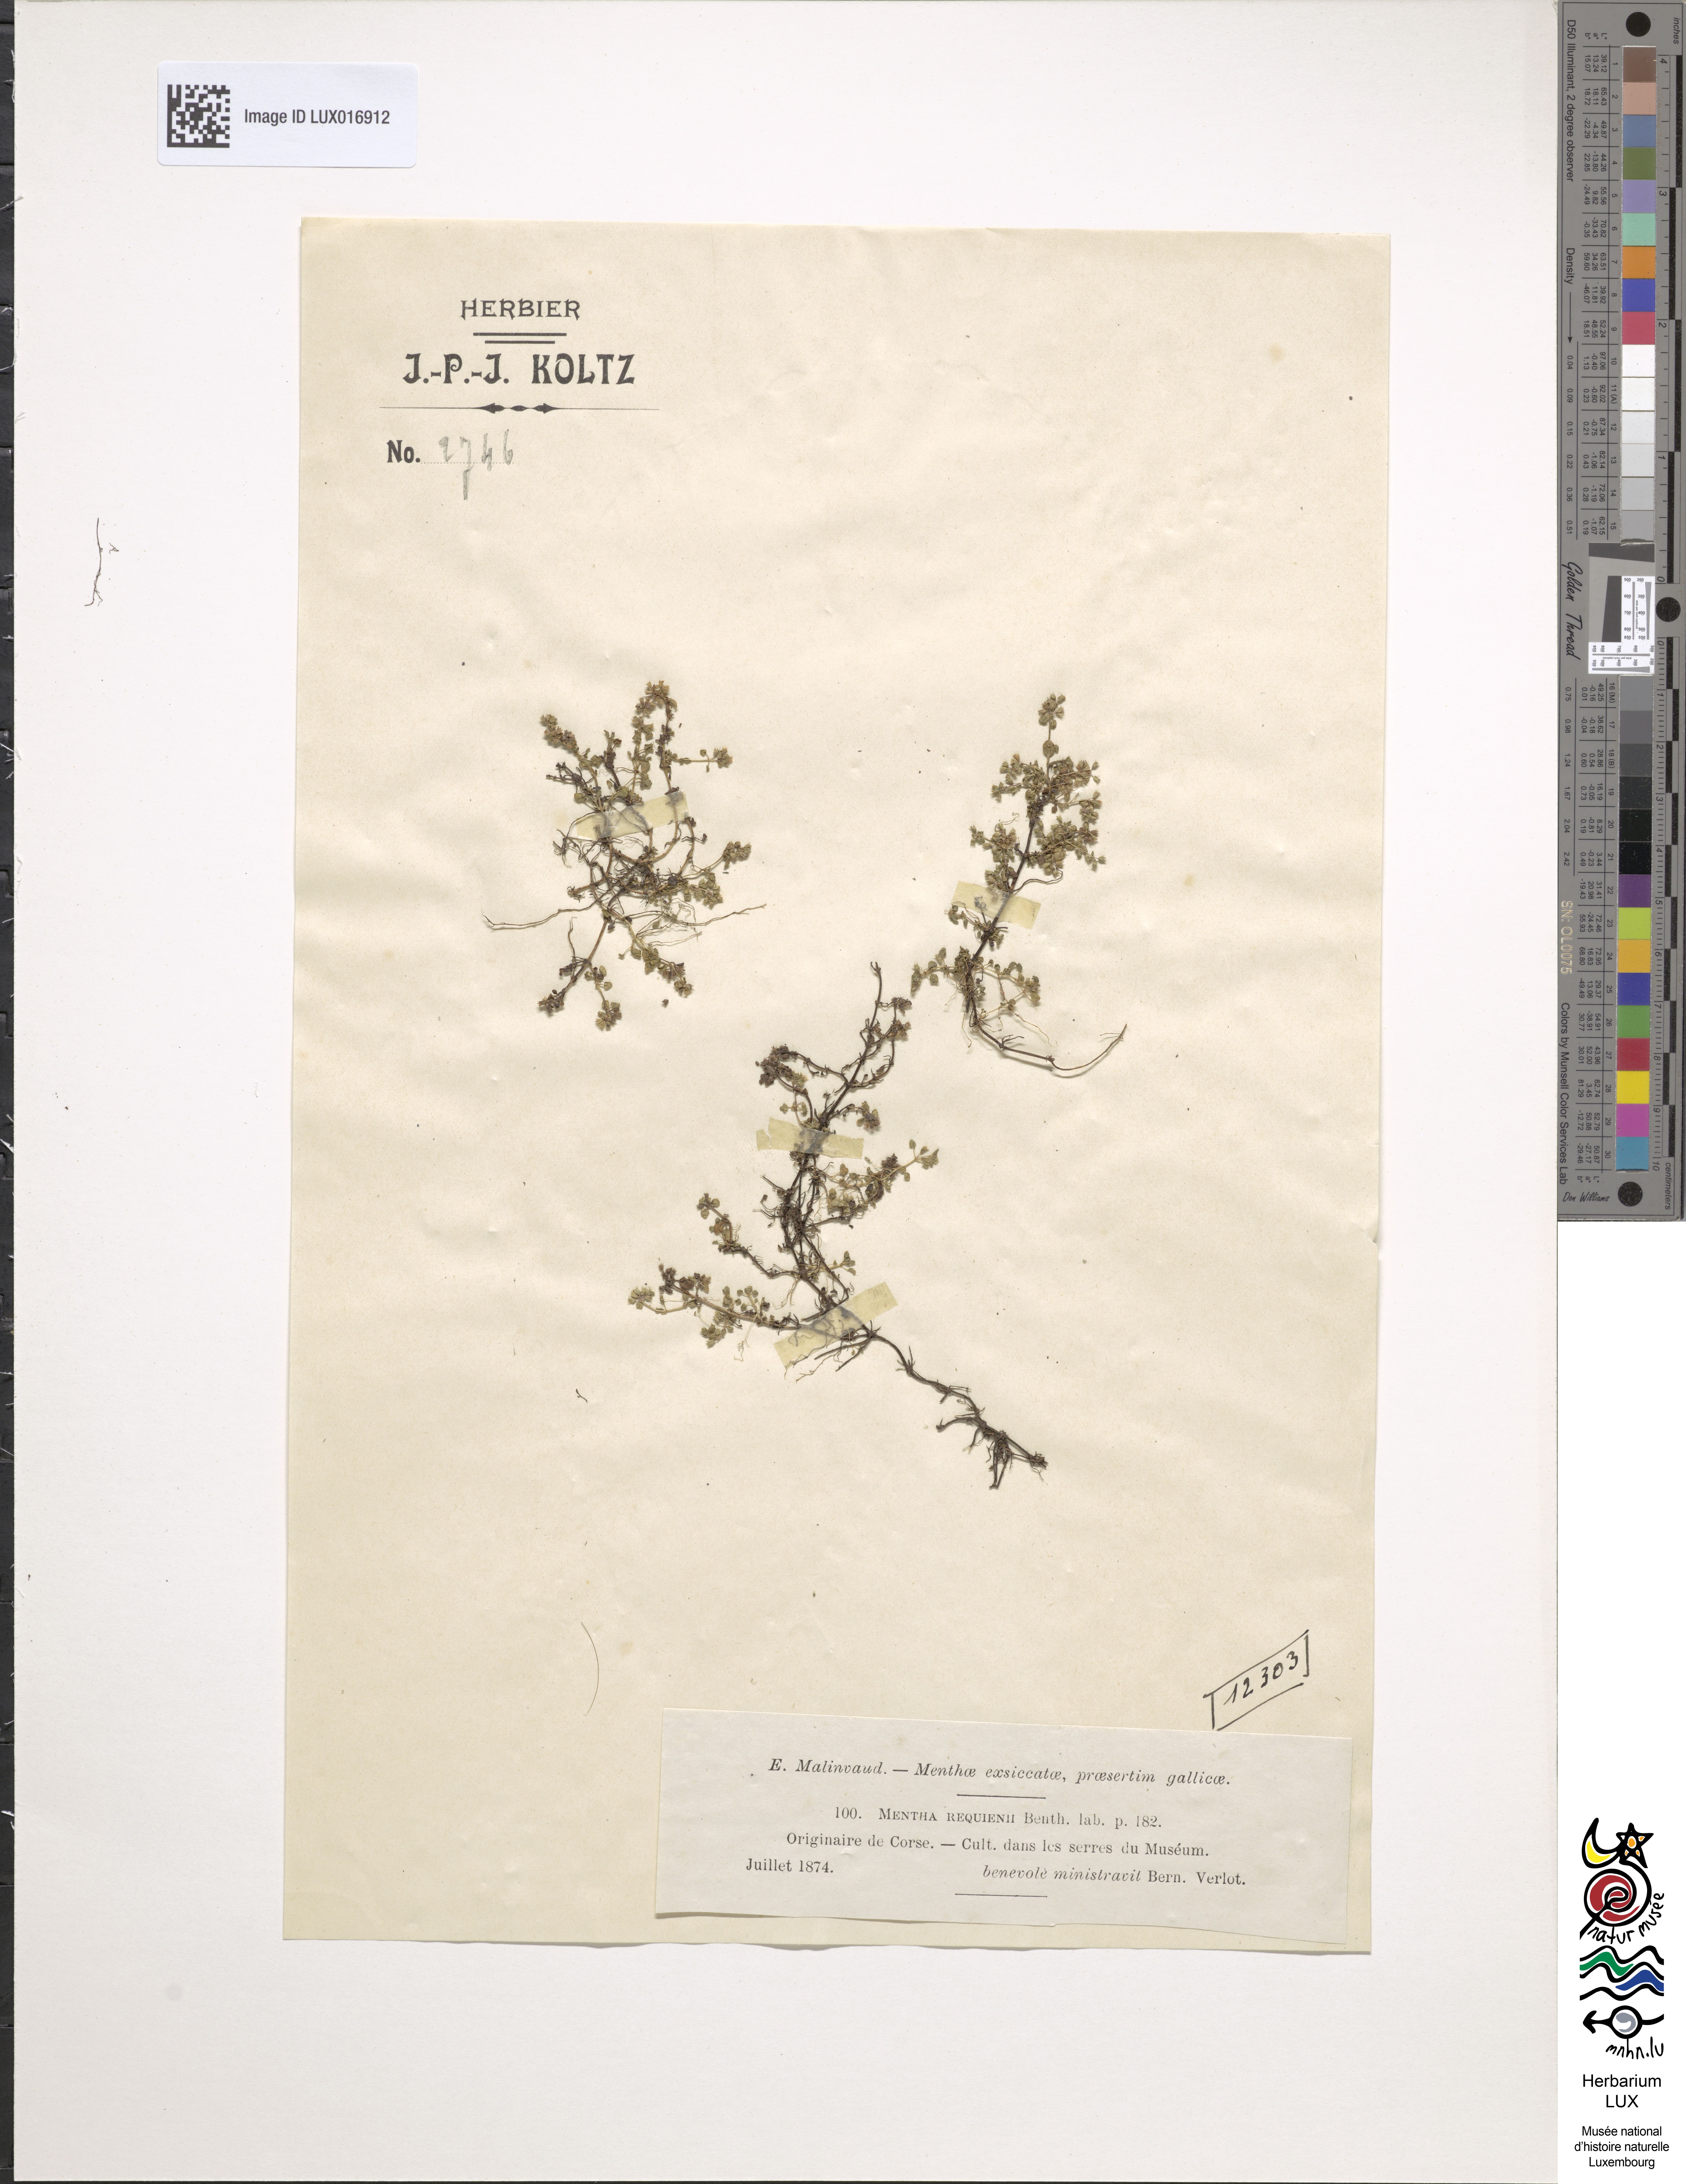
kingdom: Plantae
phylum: Tracheophyta
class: Magnoliopsida
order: Lamiales
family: Lamiaceae
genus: Mentha
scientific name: Mentha requienii
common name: Corsican mint
